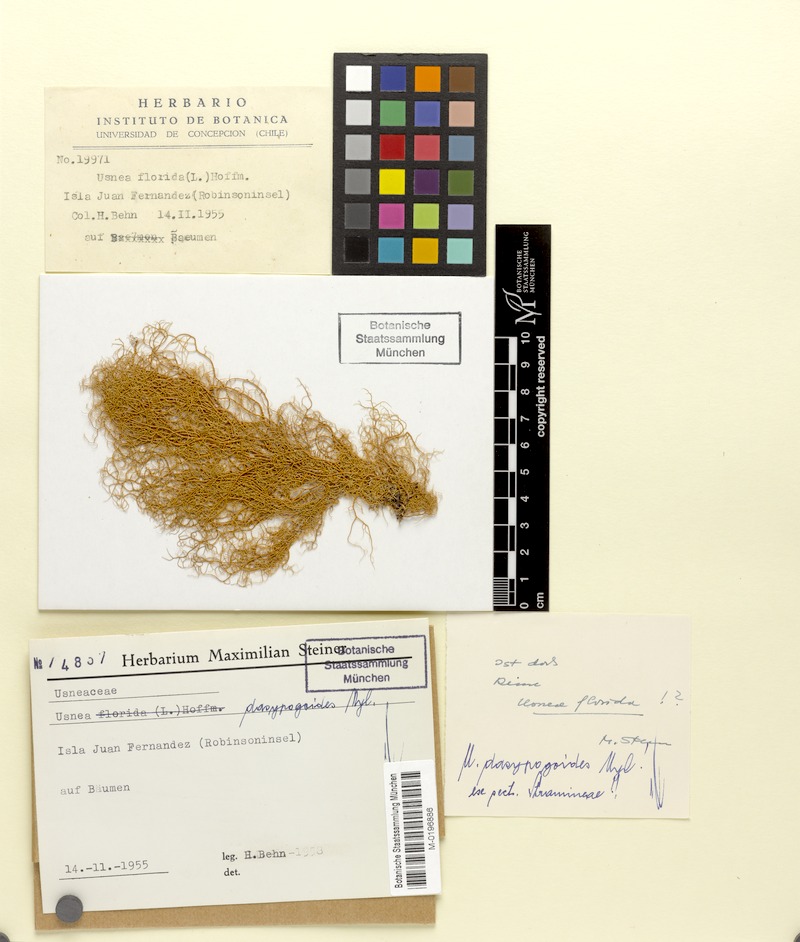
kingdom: Fungi
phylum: Ascomycota
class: Lecanoromycetes
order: Lecanorales
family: Parmeliaceae
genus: Bryoria
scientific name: Bryoria bicolor
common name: Electric horsehair lichen
